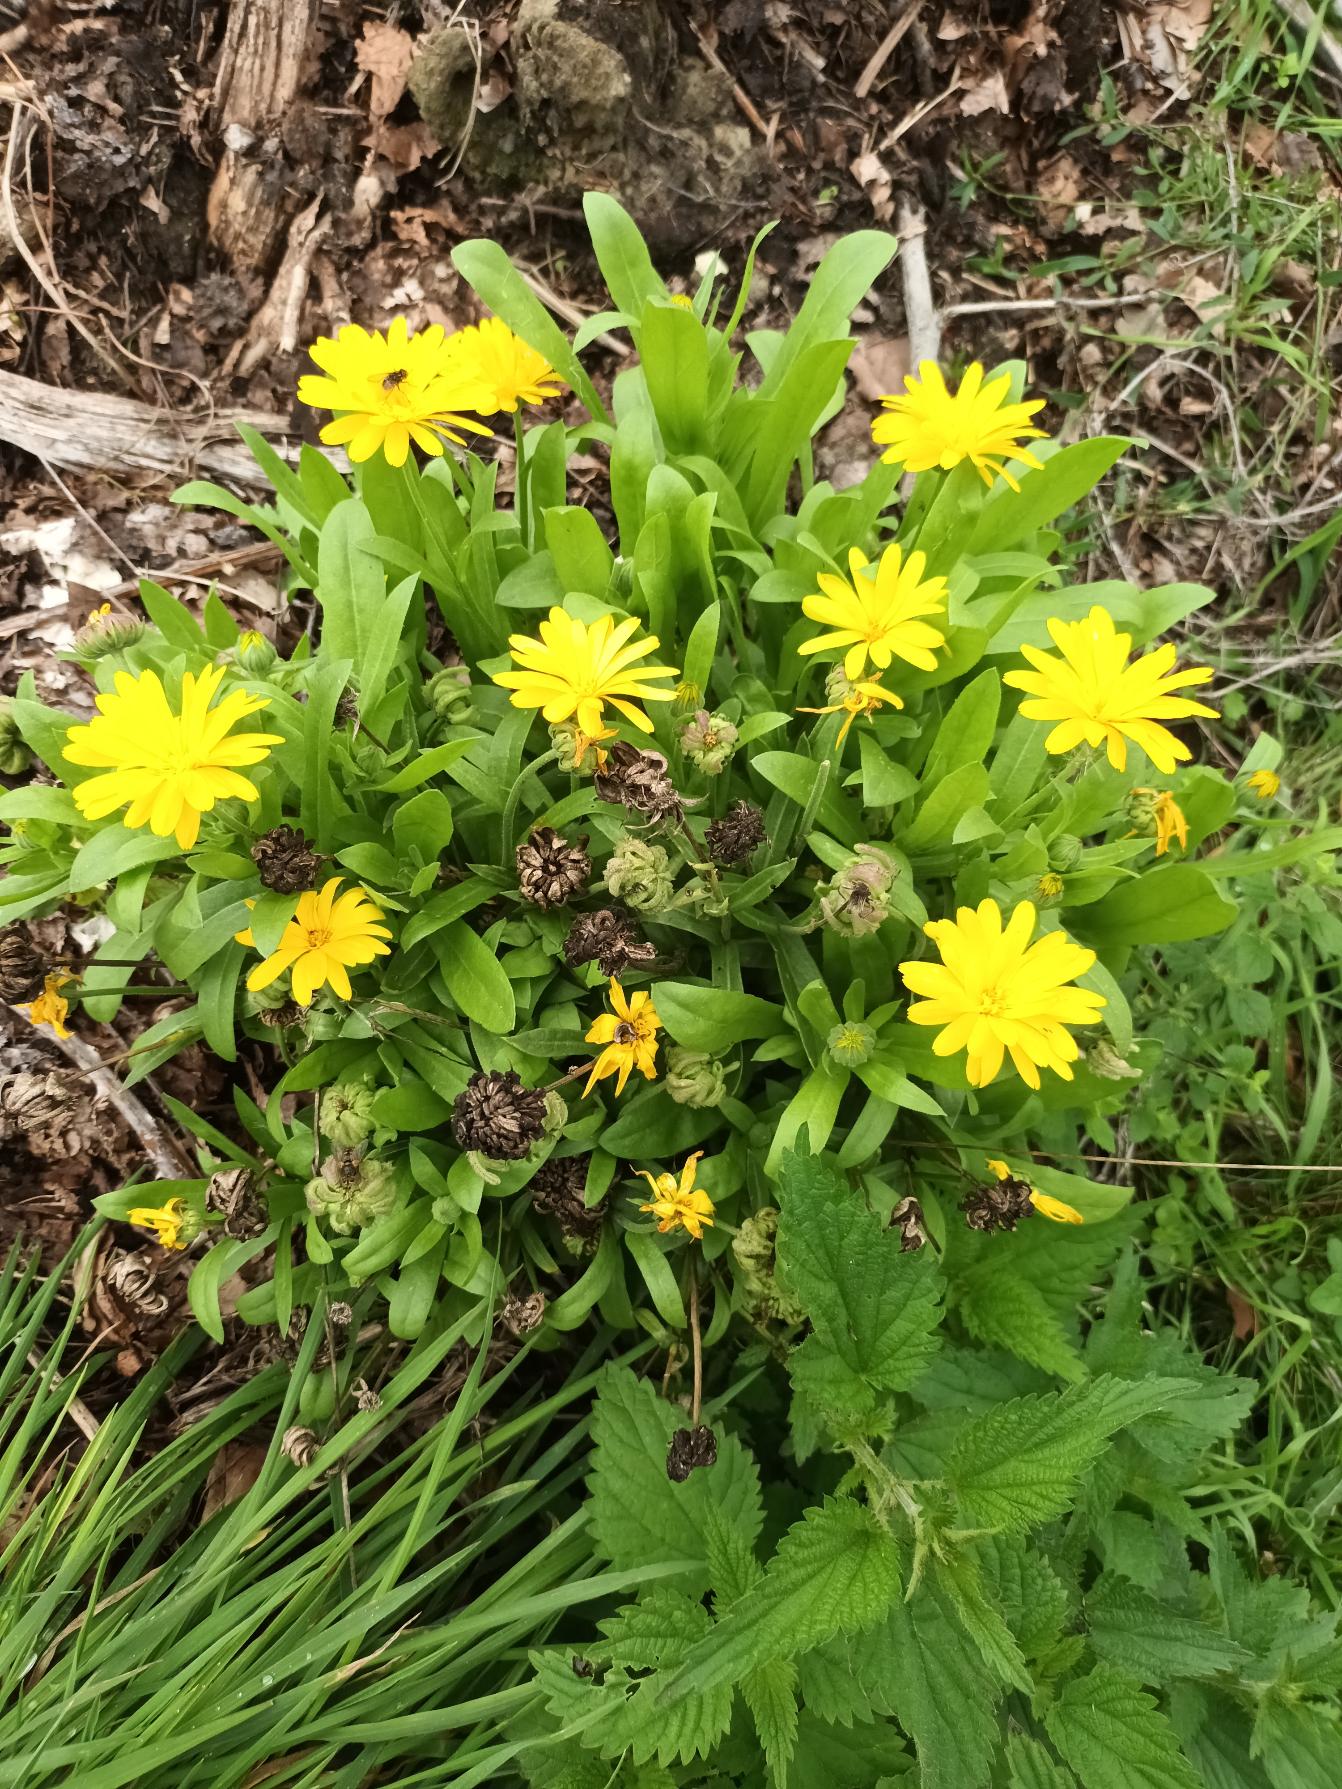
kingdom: Plantae
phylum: Tracheophyta
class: Magnoliopsida
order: Asterales
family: Asteraceae
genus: Calendula
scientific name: Calendula officinalis
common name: Have-morgenfrue
